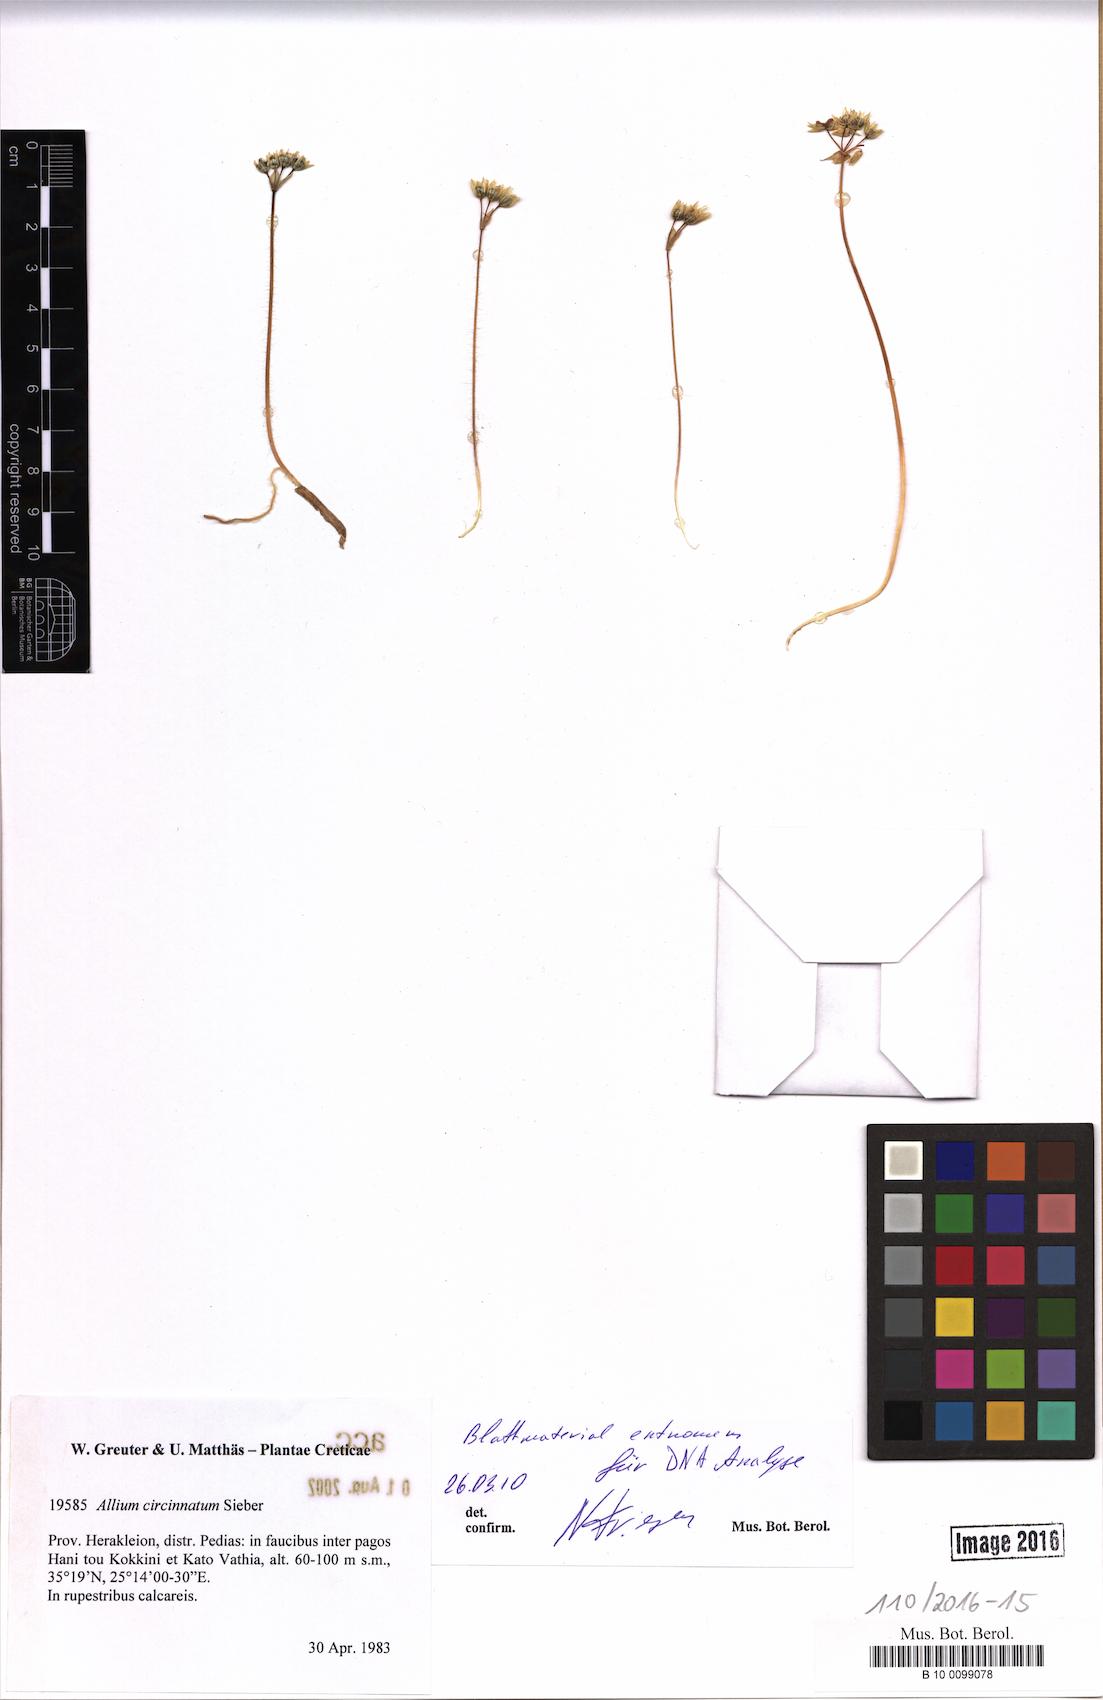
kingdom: Plantae
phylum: Tracheophyta
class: Liliopsida
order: Asparagales
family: Amaryllidaceae
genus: Allium
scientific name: Allium circinnatum
